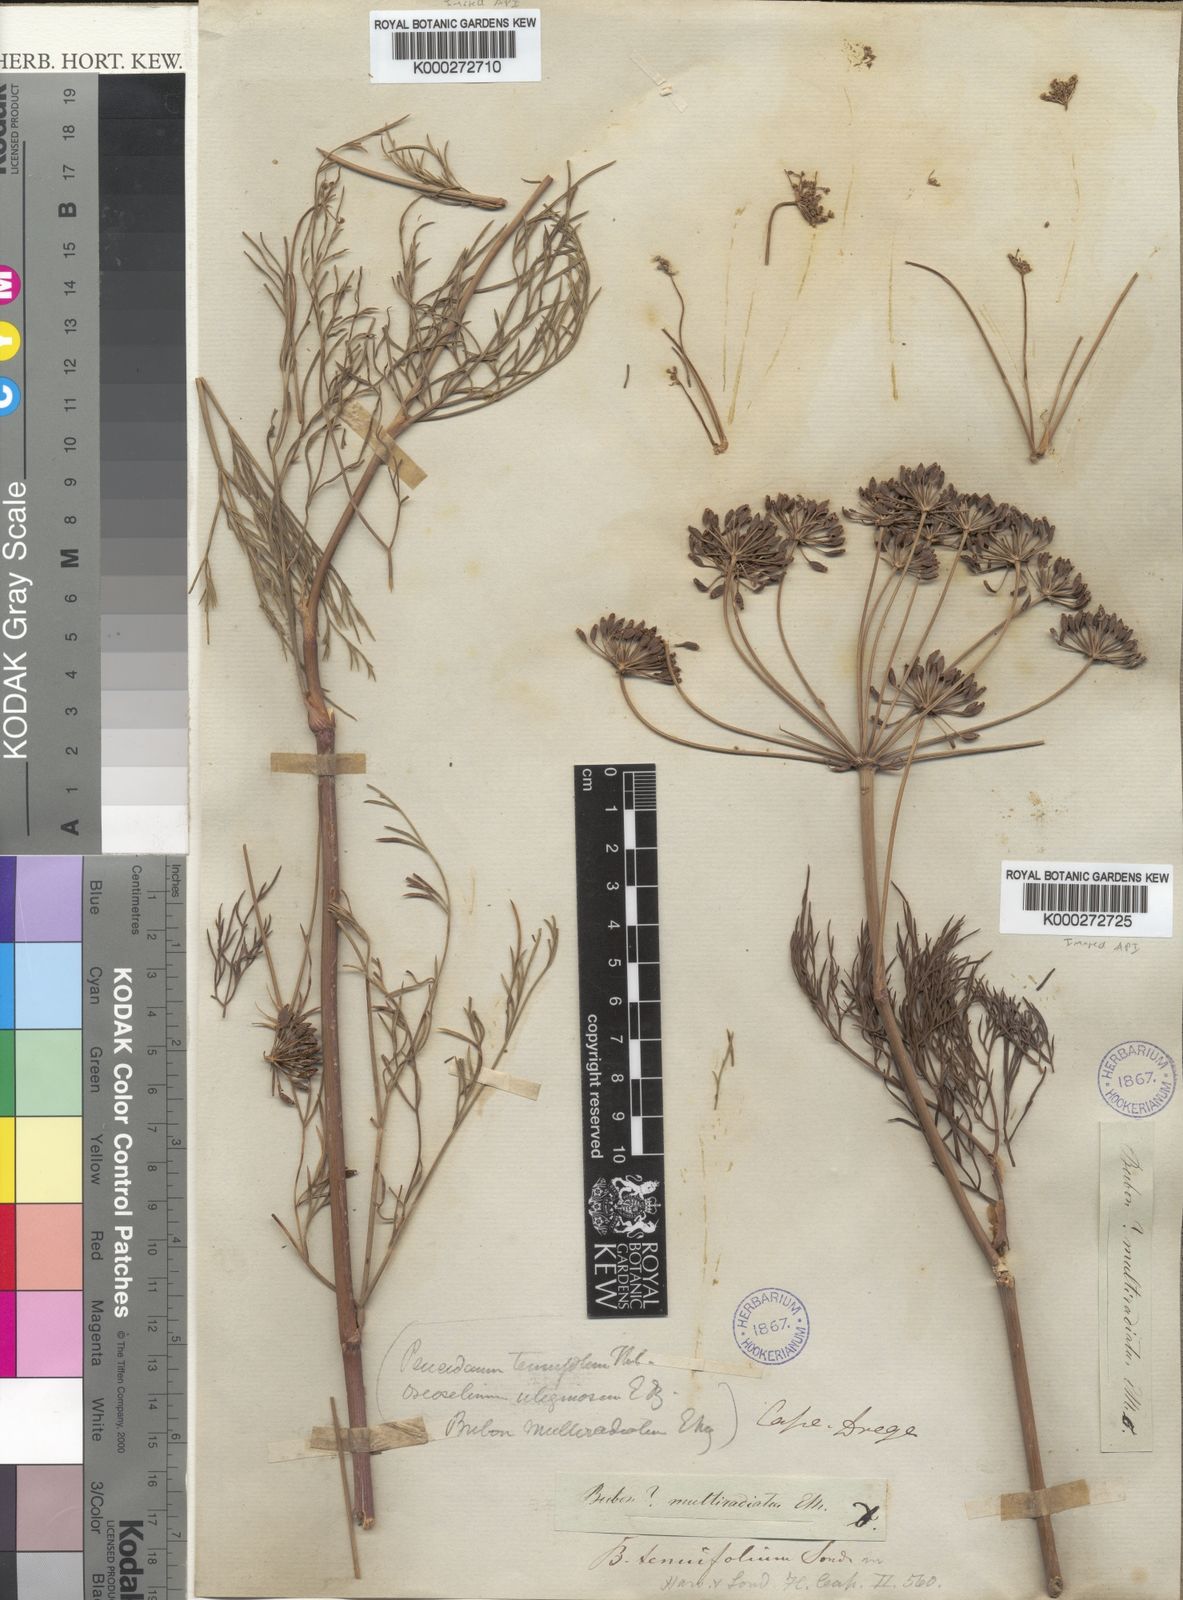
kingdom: Plantae
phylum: Tracheophyta
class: Magnoliopsida
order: Apiales
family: Apiaceae
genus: Anethum
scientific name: Anethum
